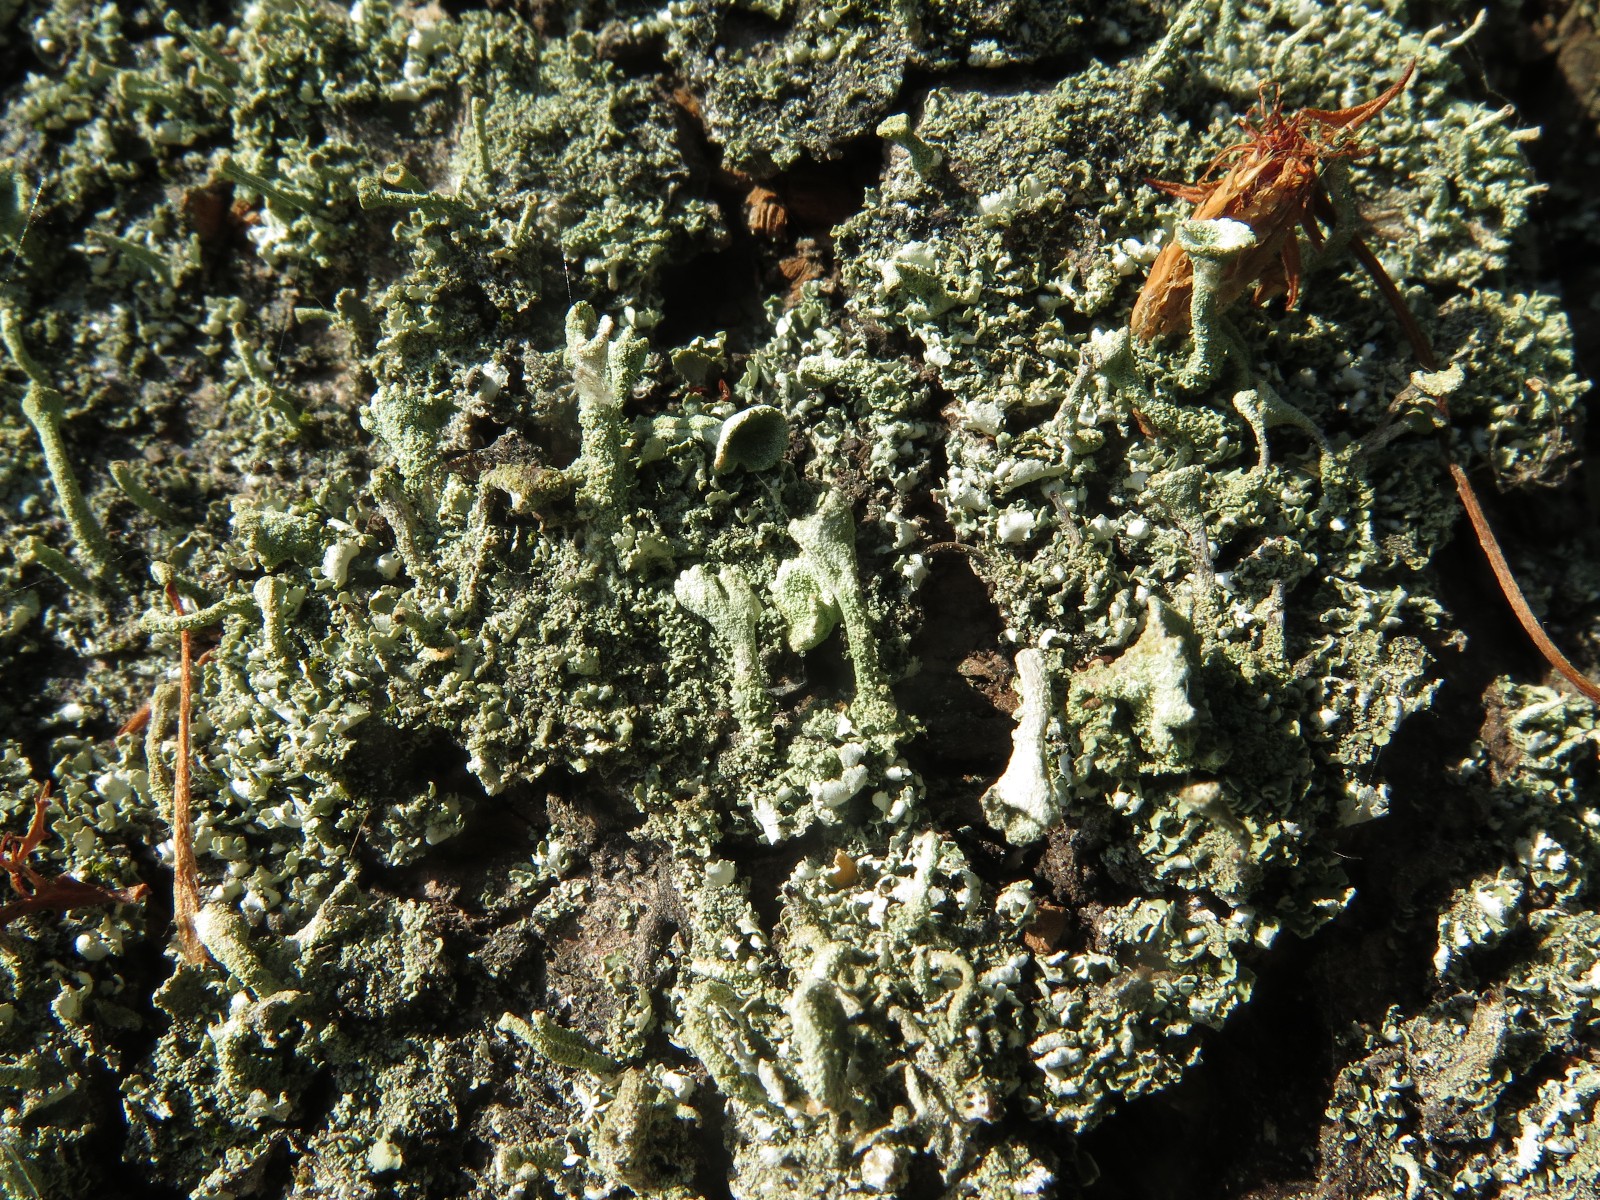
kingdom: Fungi
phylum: Ascomycota
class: Lecanoromycetes
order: Lecanorales
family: Cladoniaceae
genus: Cladonia
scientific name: Cladonia
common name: brungrøn bægerlav
